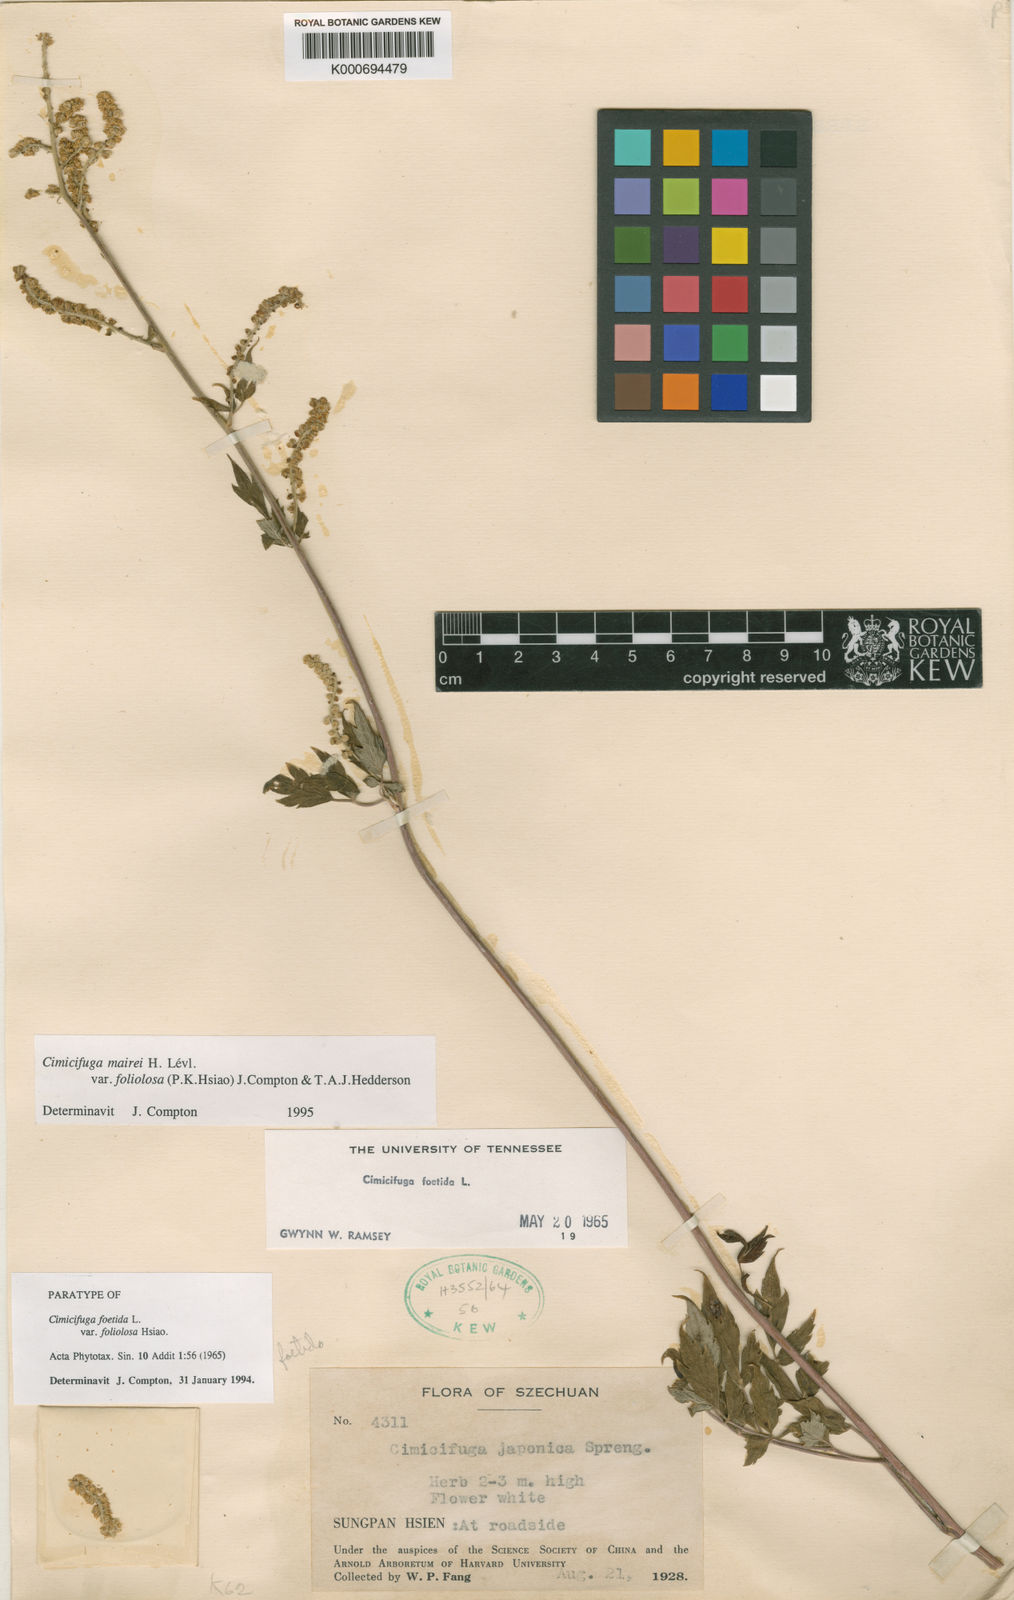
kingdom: Plantae
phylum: Tracheophyta
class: Magnoliopsida
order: Ranunculales
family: Ranunculaceae
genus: Actaea
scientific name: Actaea cimicifuga
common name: Chinese cimicifuga
